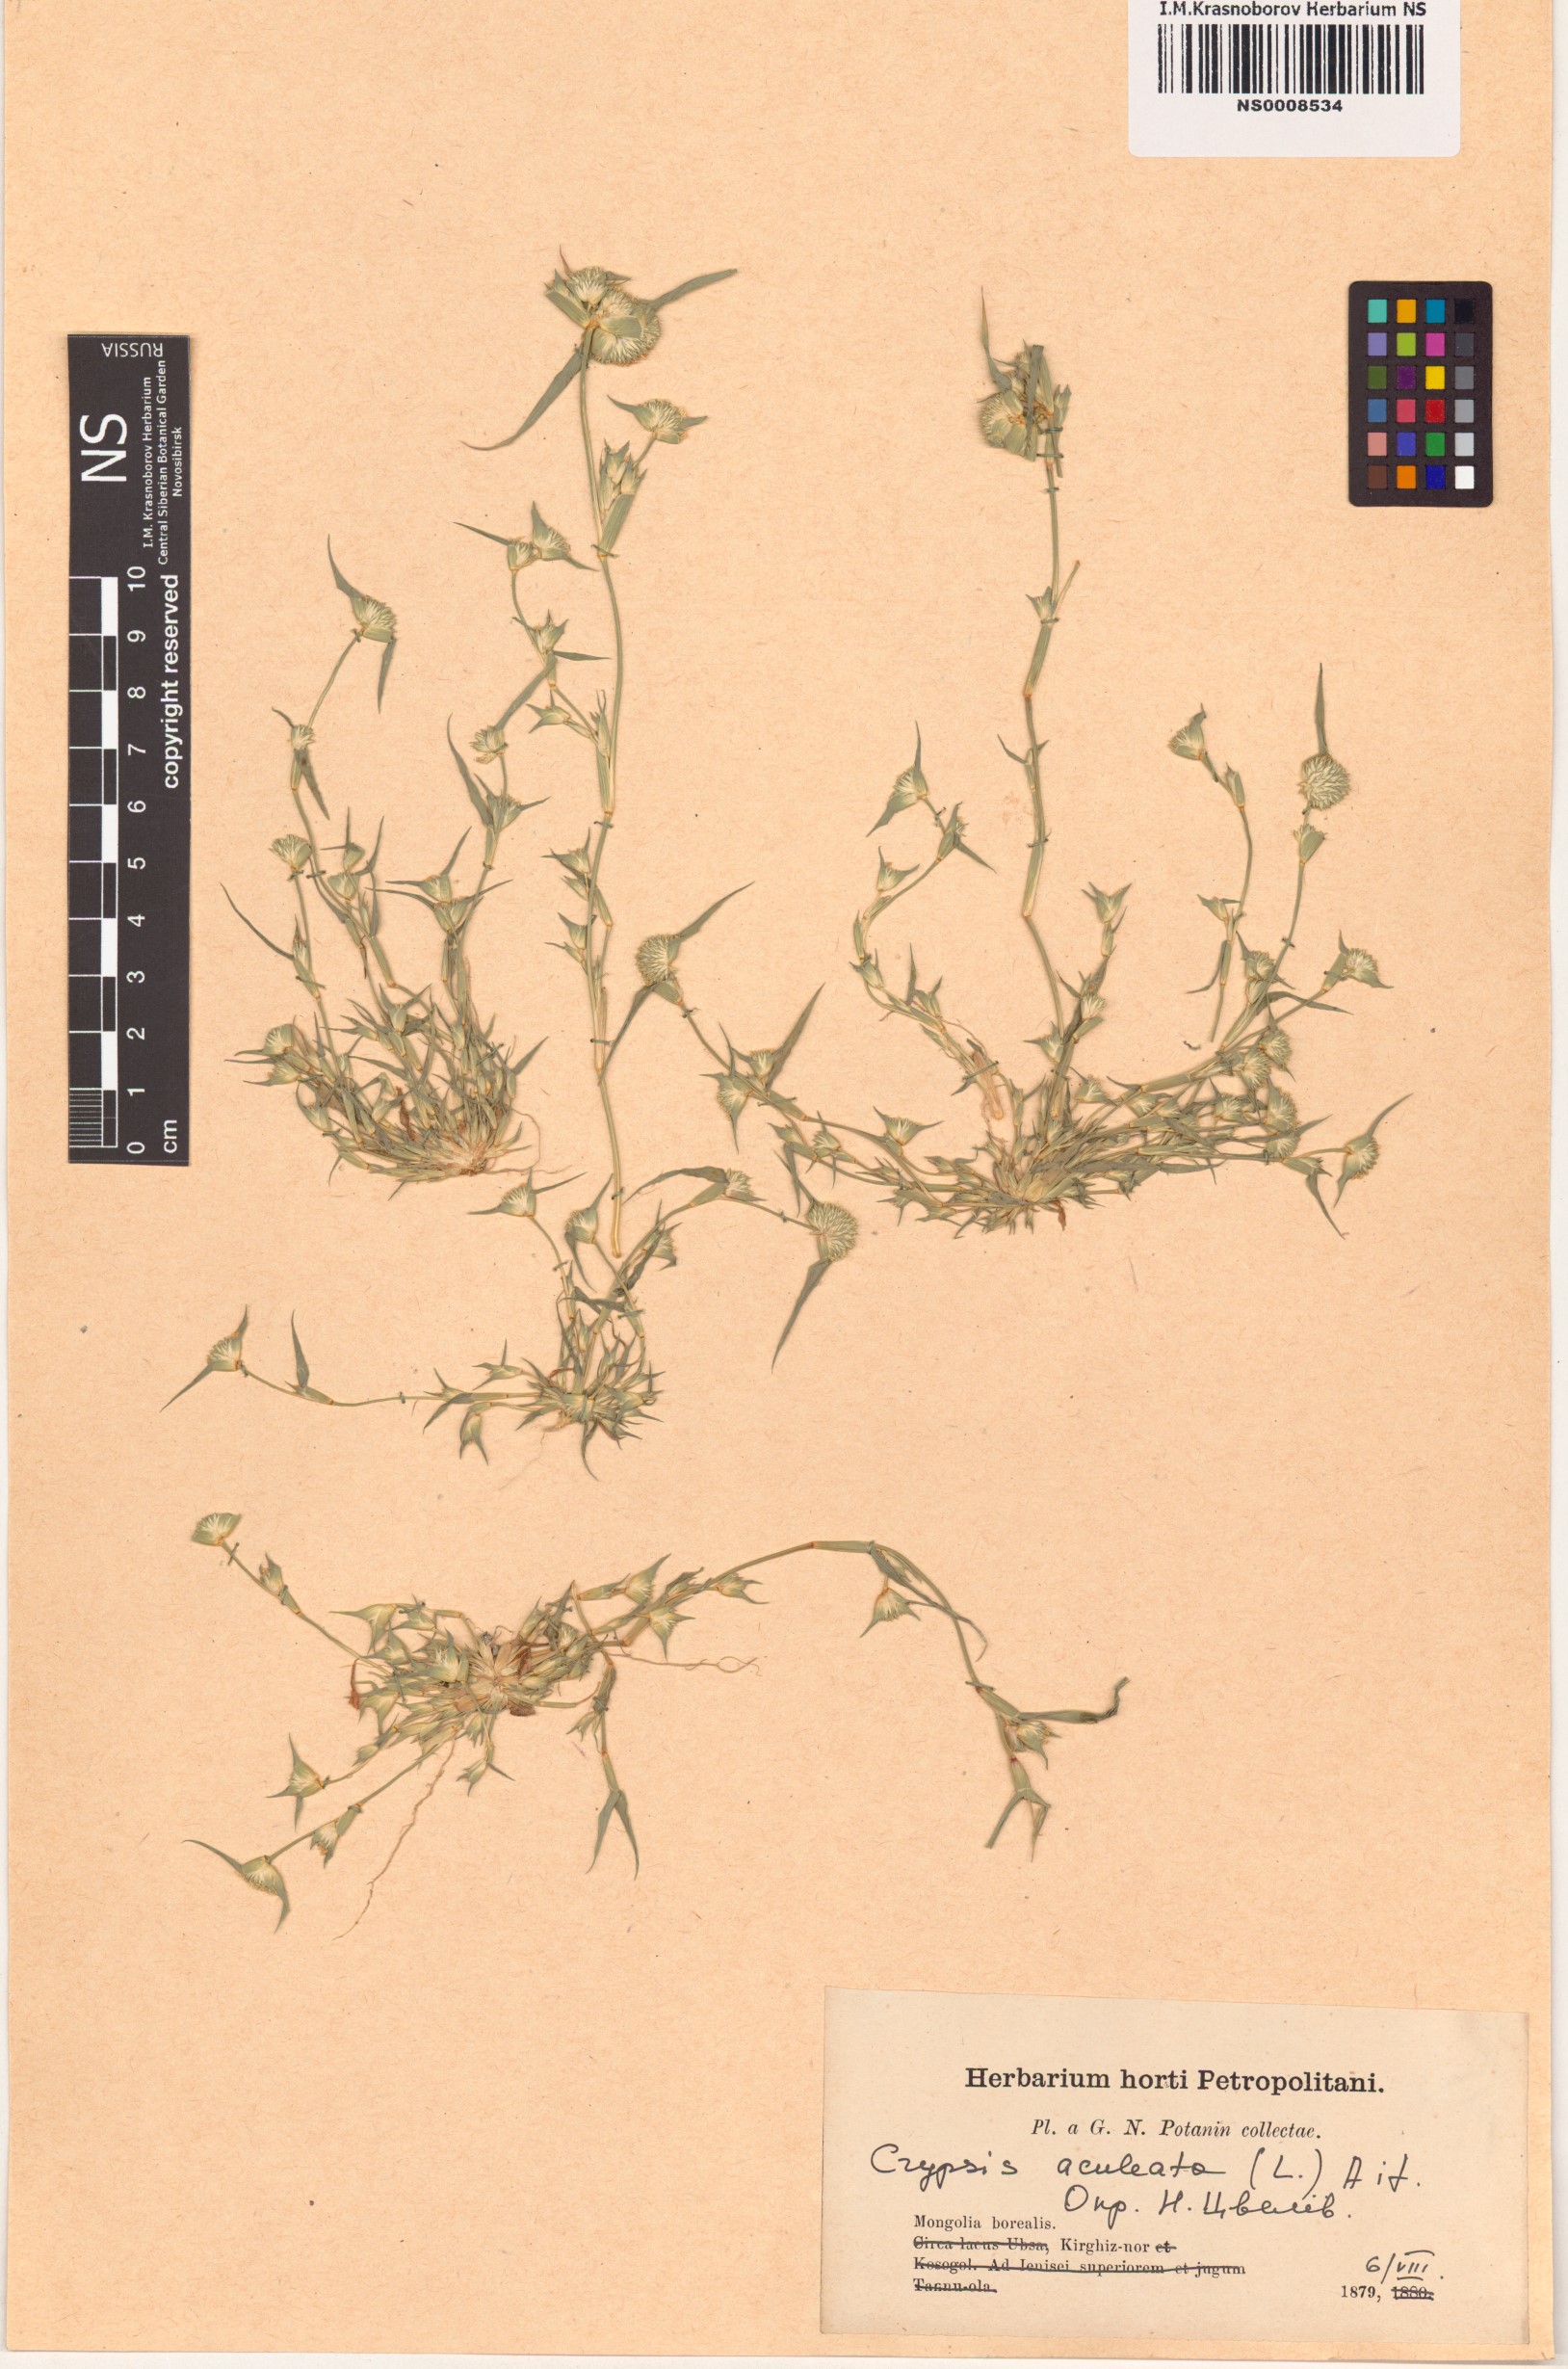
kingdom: Plantae
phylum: Tracheophyta
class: Liliopsida
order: Poales
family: Poaceae
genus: Sporobolus
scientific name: Sporobolus aculeatus
